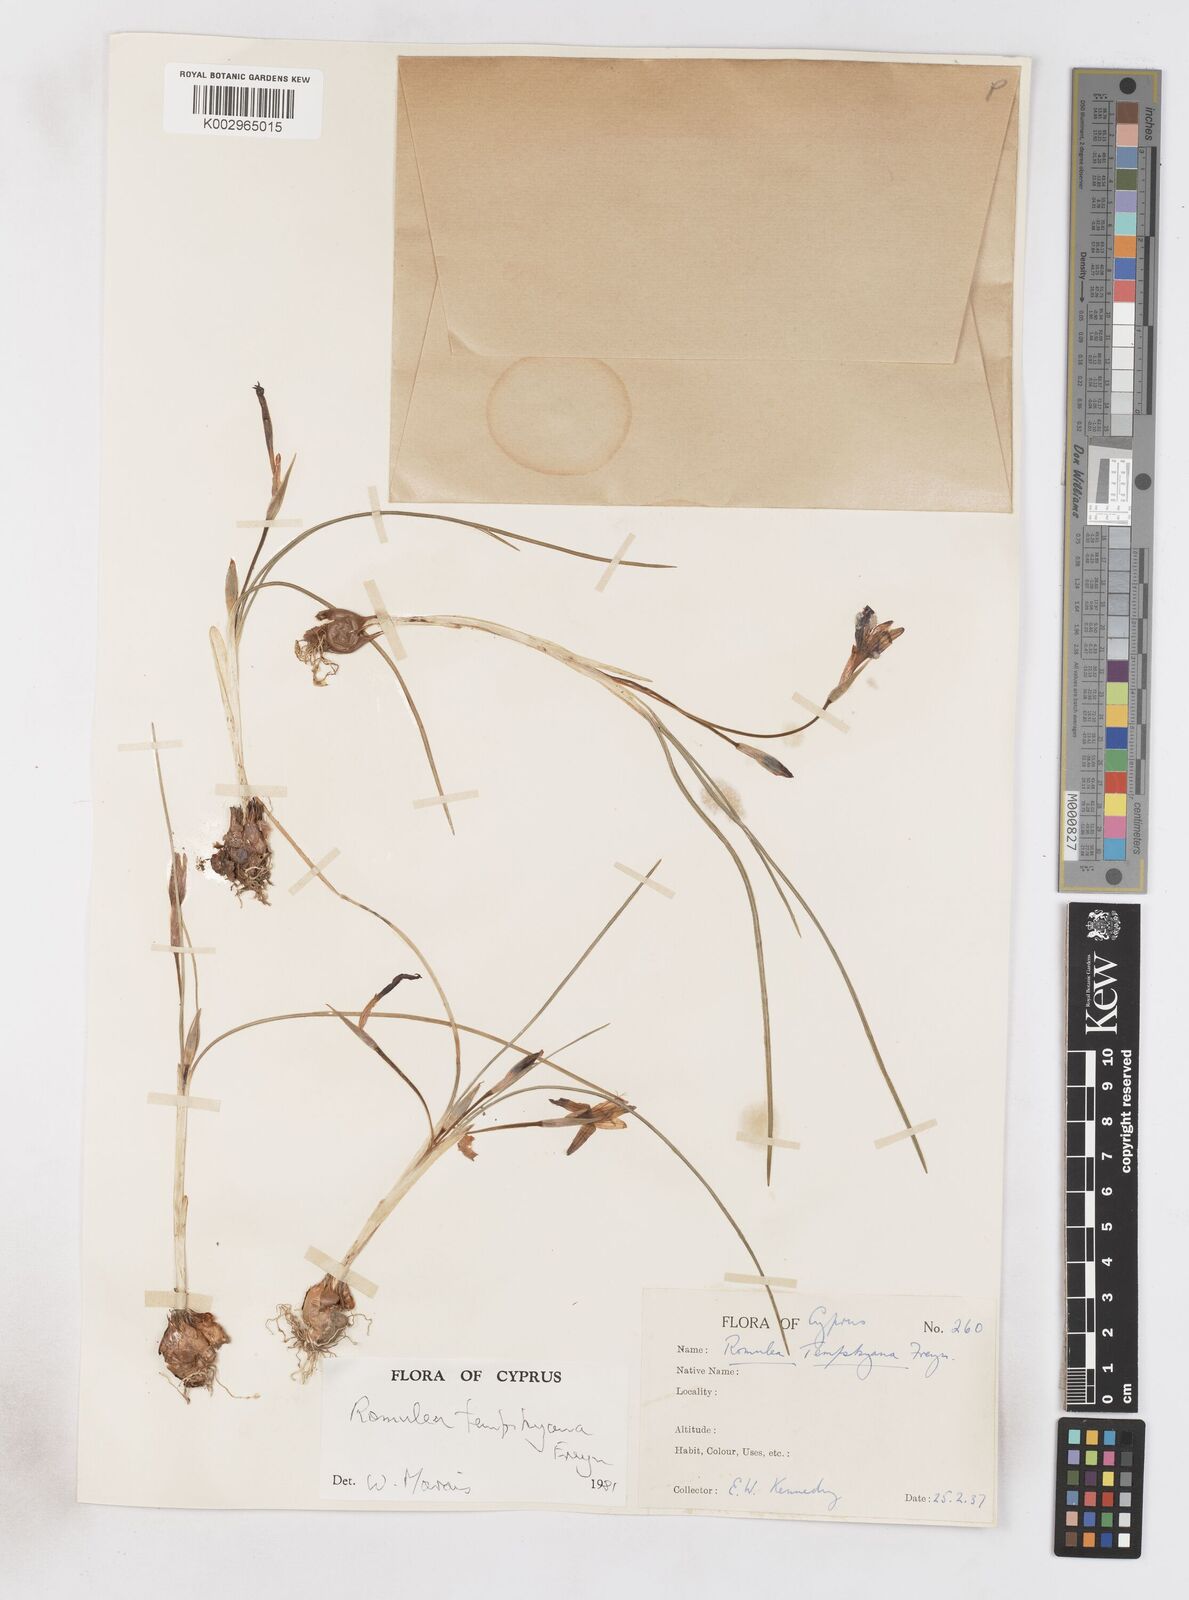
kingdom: Plantae
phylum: Tracheophyta
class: Liliopsida
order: Asparagales
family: Iridaceae
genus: Romulea
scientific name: Romulea tempskyana
